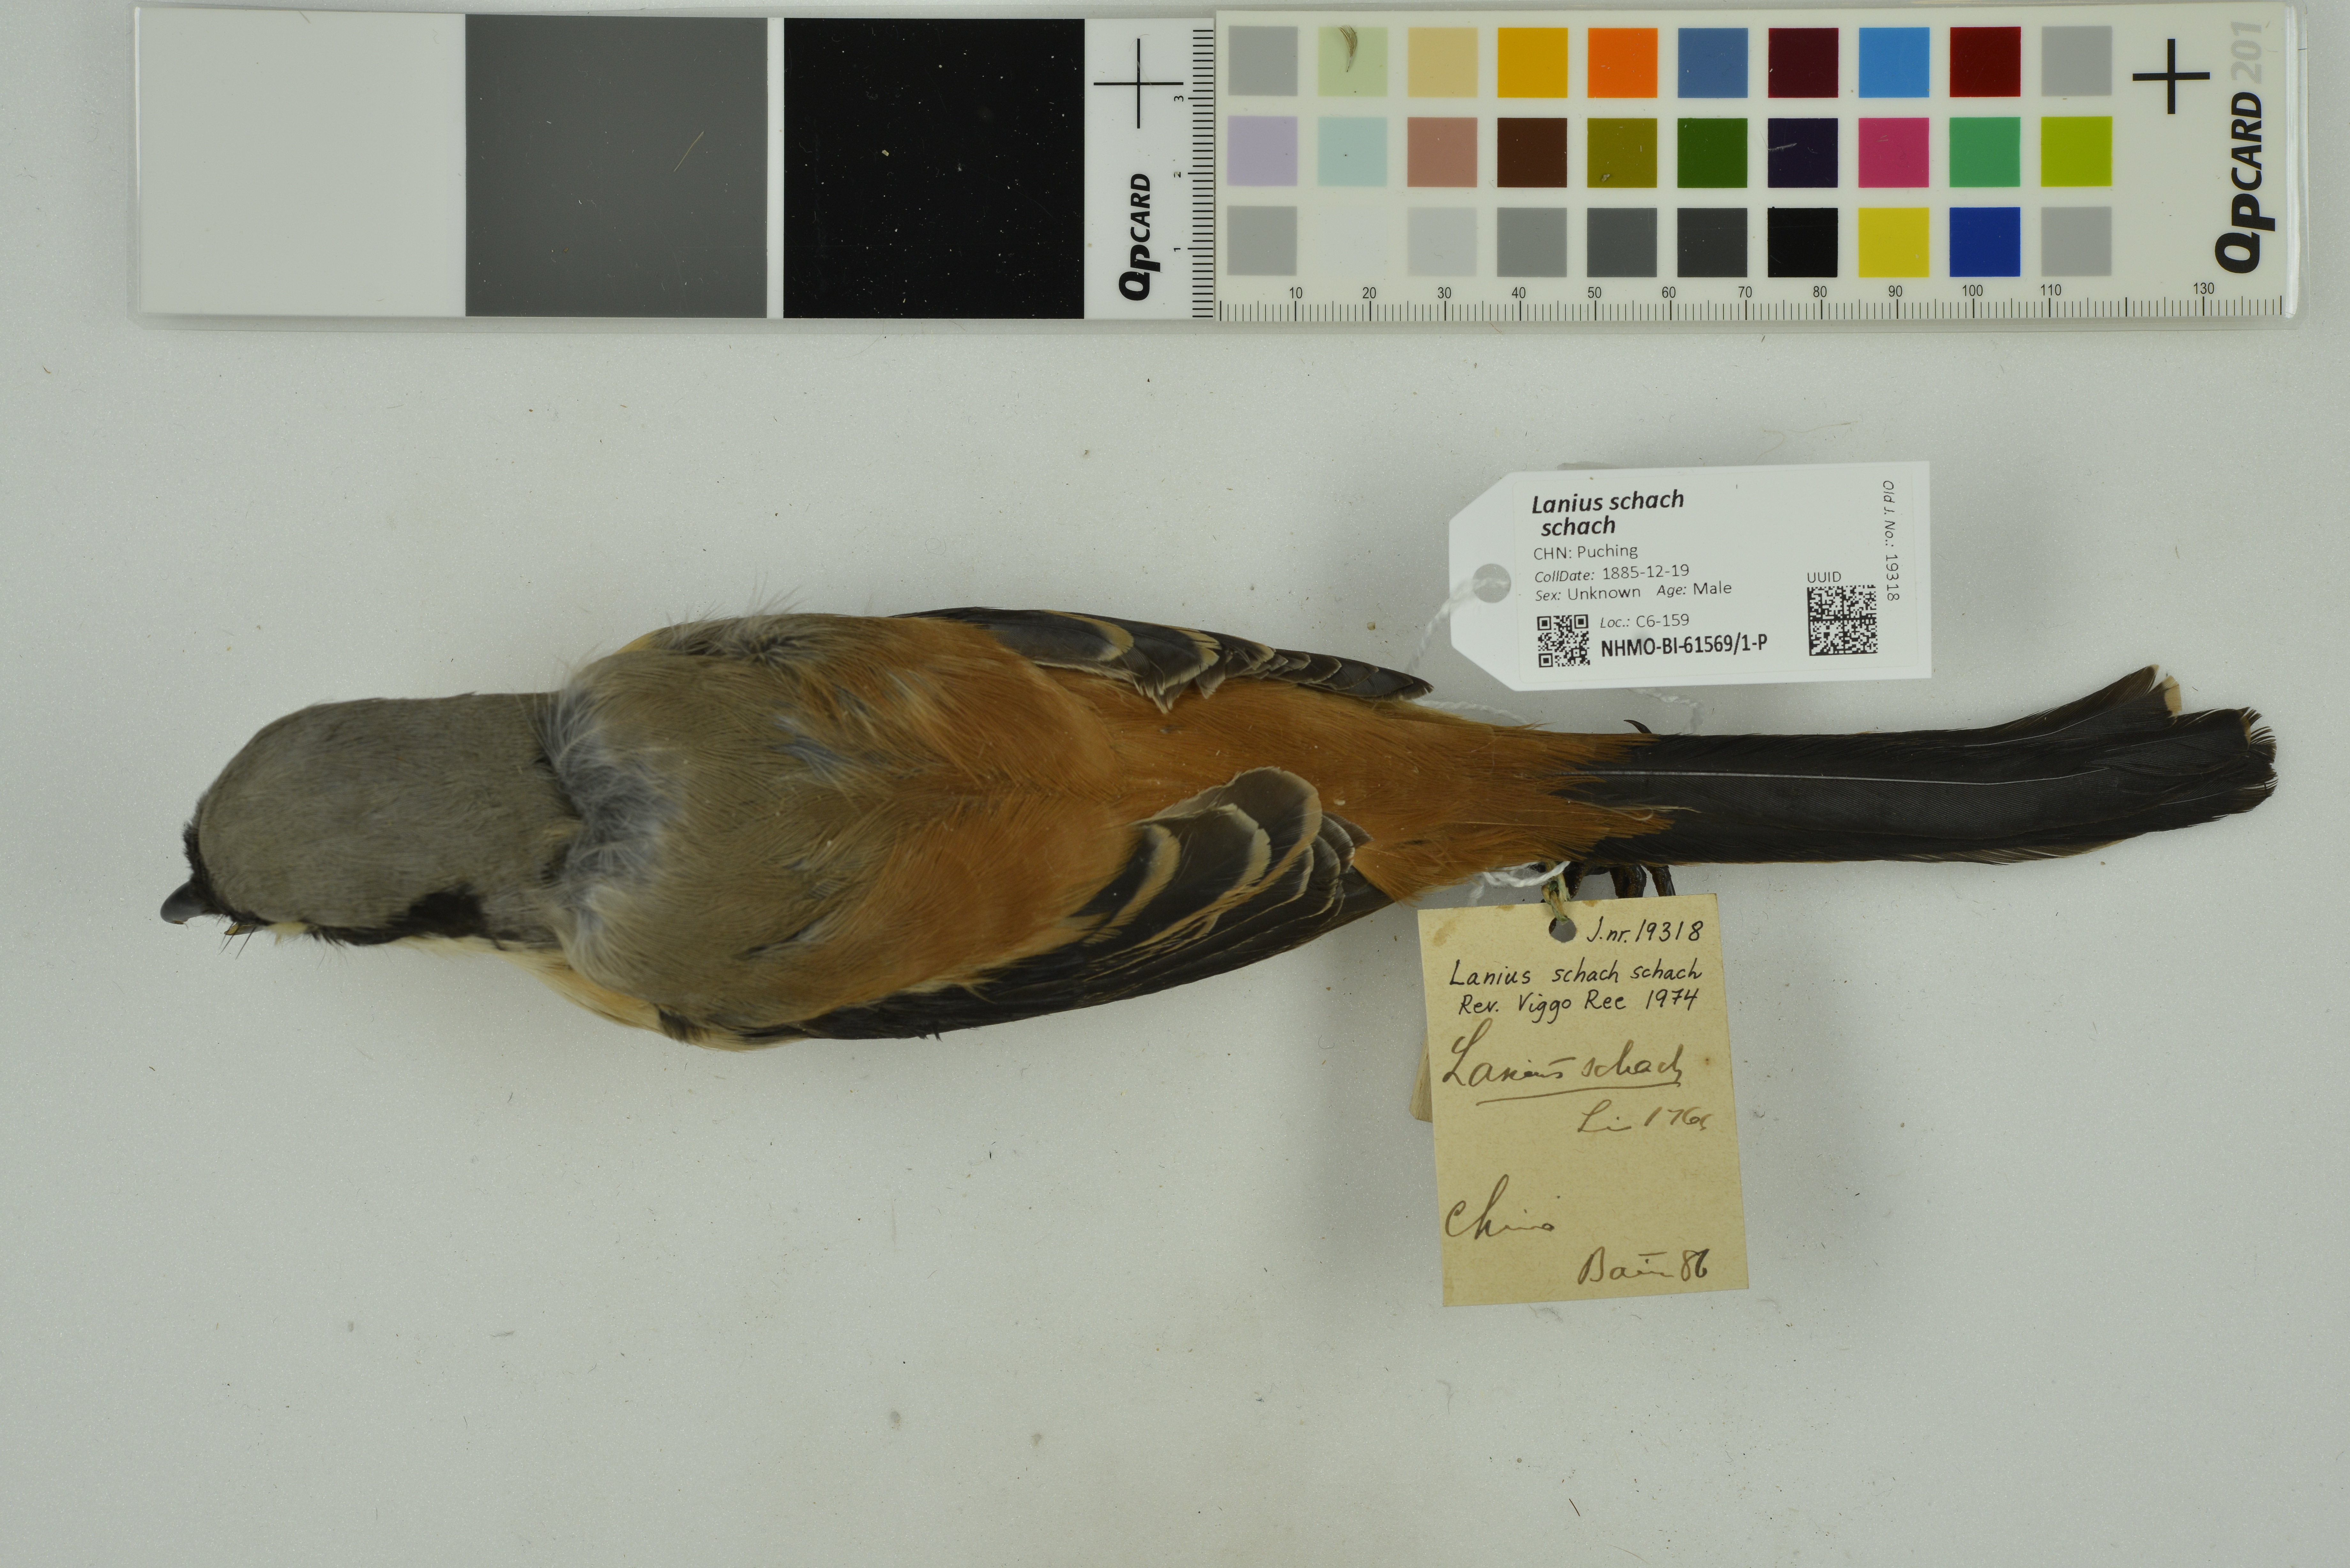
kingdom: Animalia
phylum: Chordata
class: Aves
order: Passeriformes
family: Laniidae
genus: Lanius
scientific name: Lanius schach
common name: Long-tailed shrike
